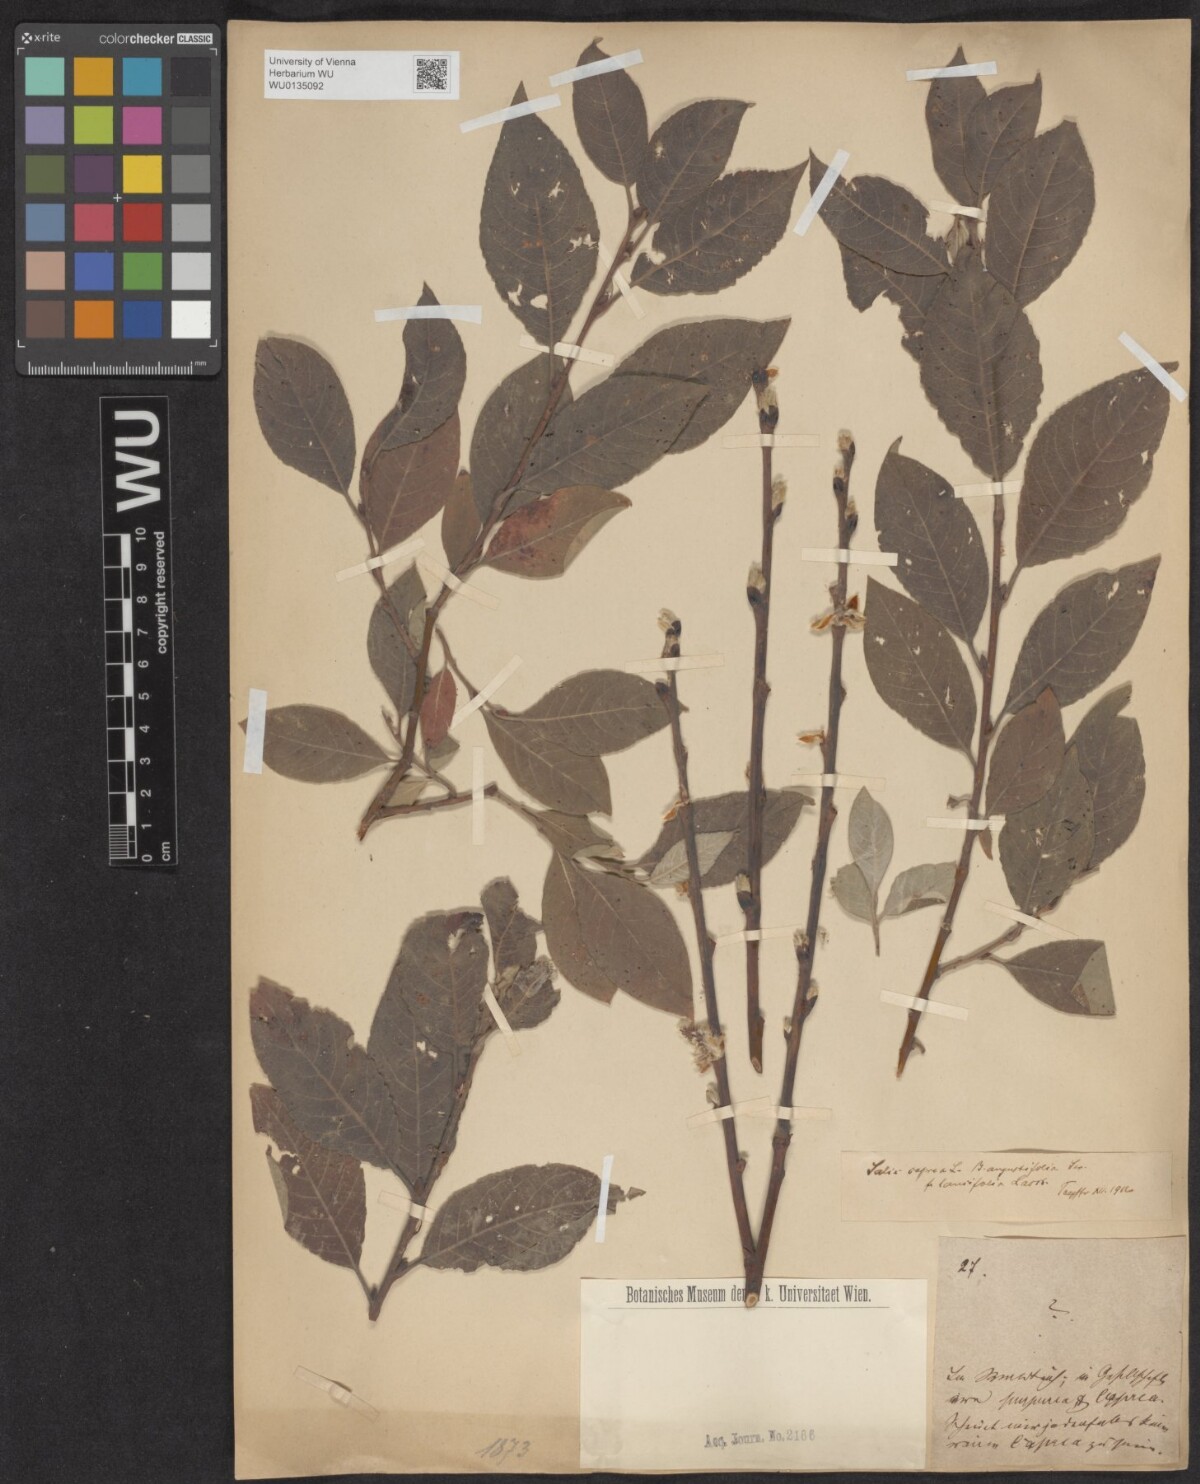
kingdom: Plantae
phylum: Tracheophyta
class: Magnoliopsida
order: Malpighiales
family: Salicaceae
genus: Salix
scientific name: Salix caprea
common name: Goat willow
